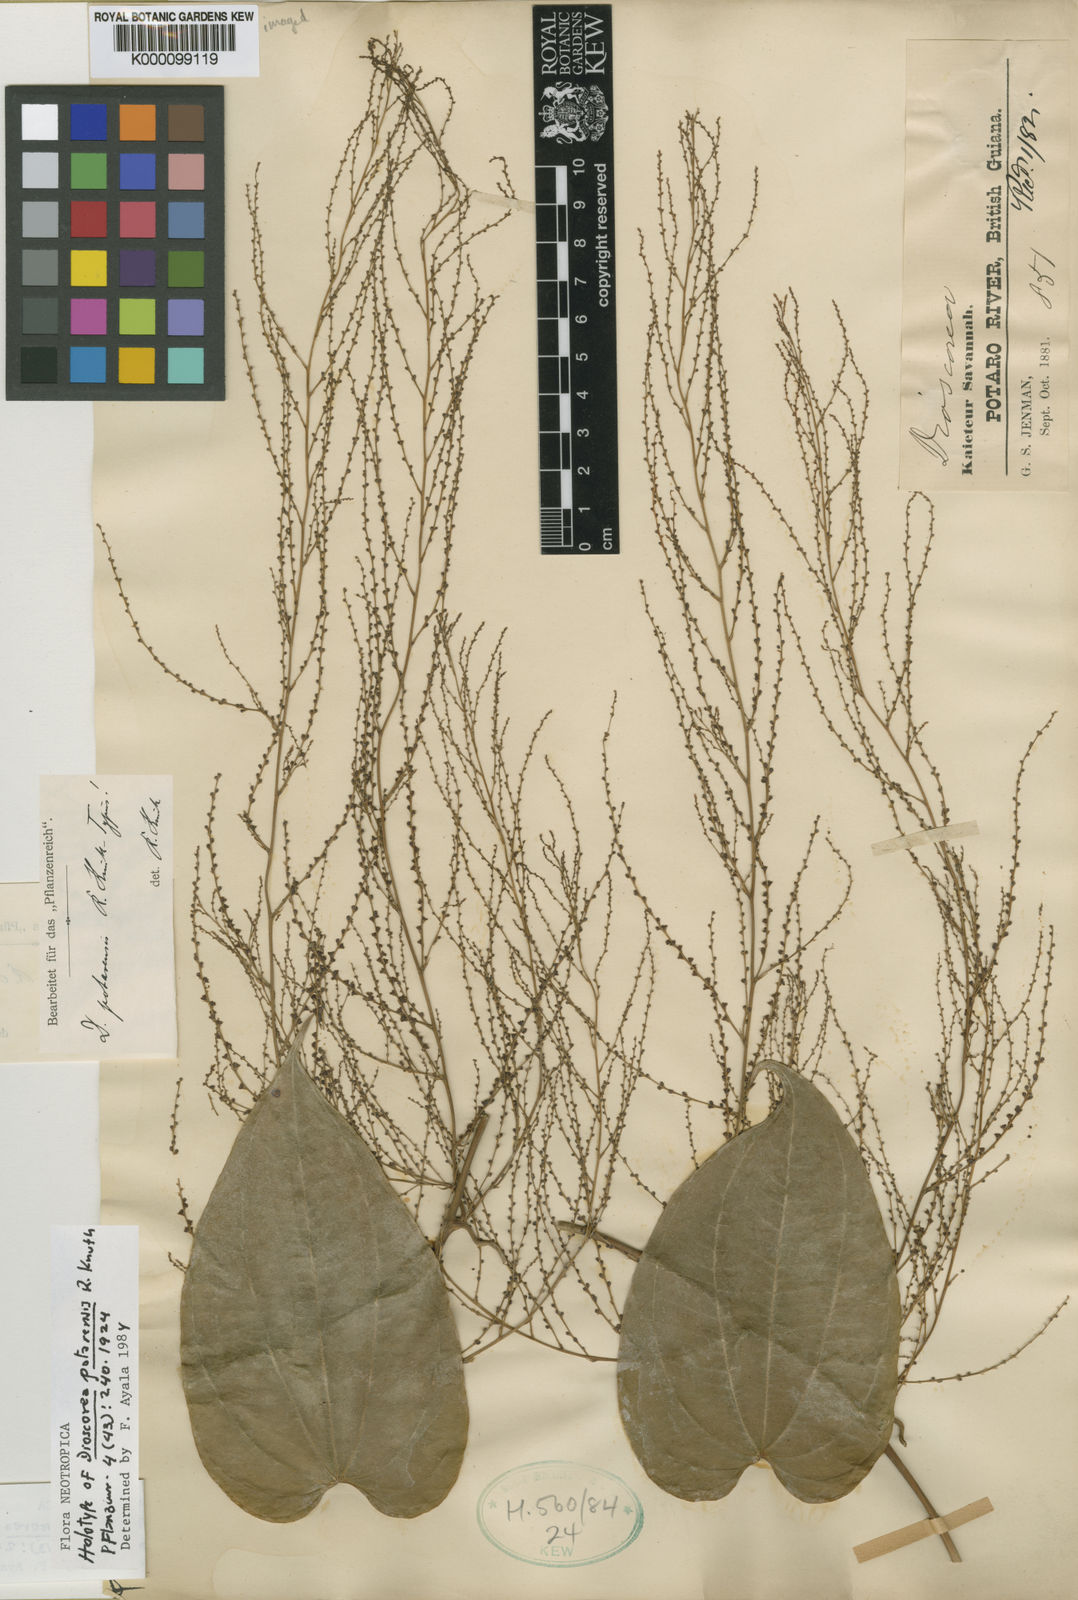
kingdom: Plantae
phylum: Tracheophyta
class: Liliopsida
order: Dioscoreales
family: Dioscoreaceae
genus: Dioscorea
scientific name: Dioscorea potarensis
